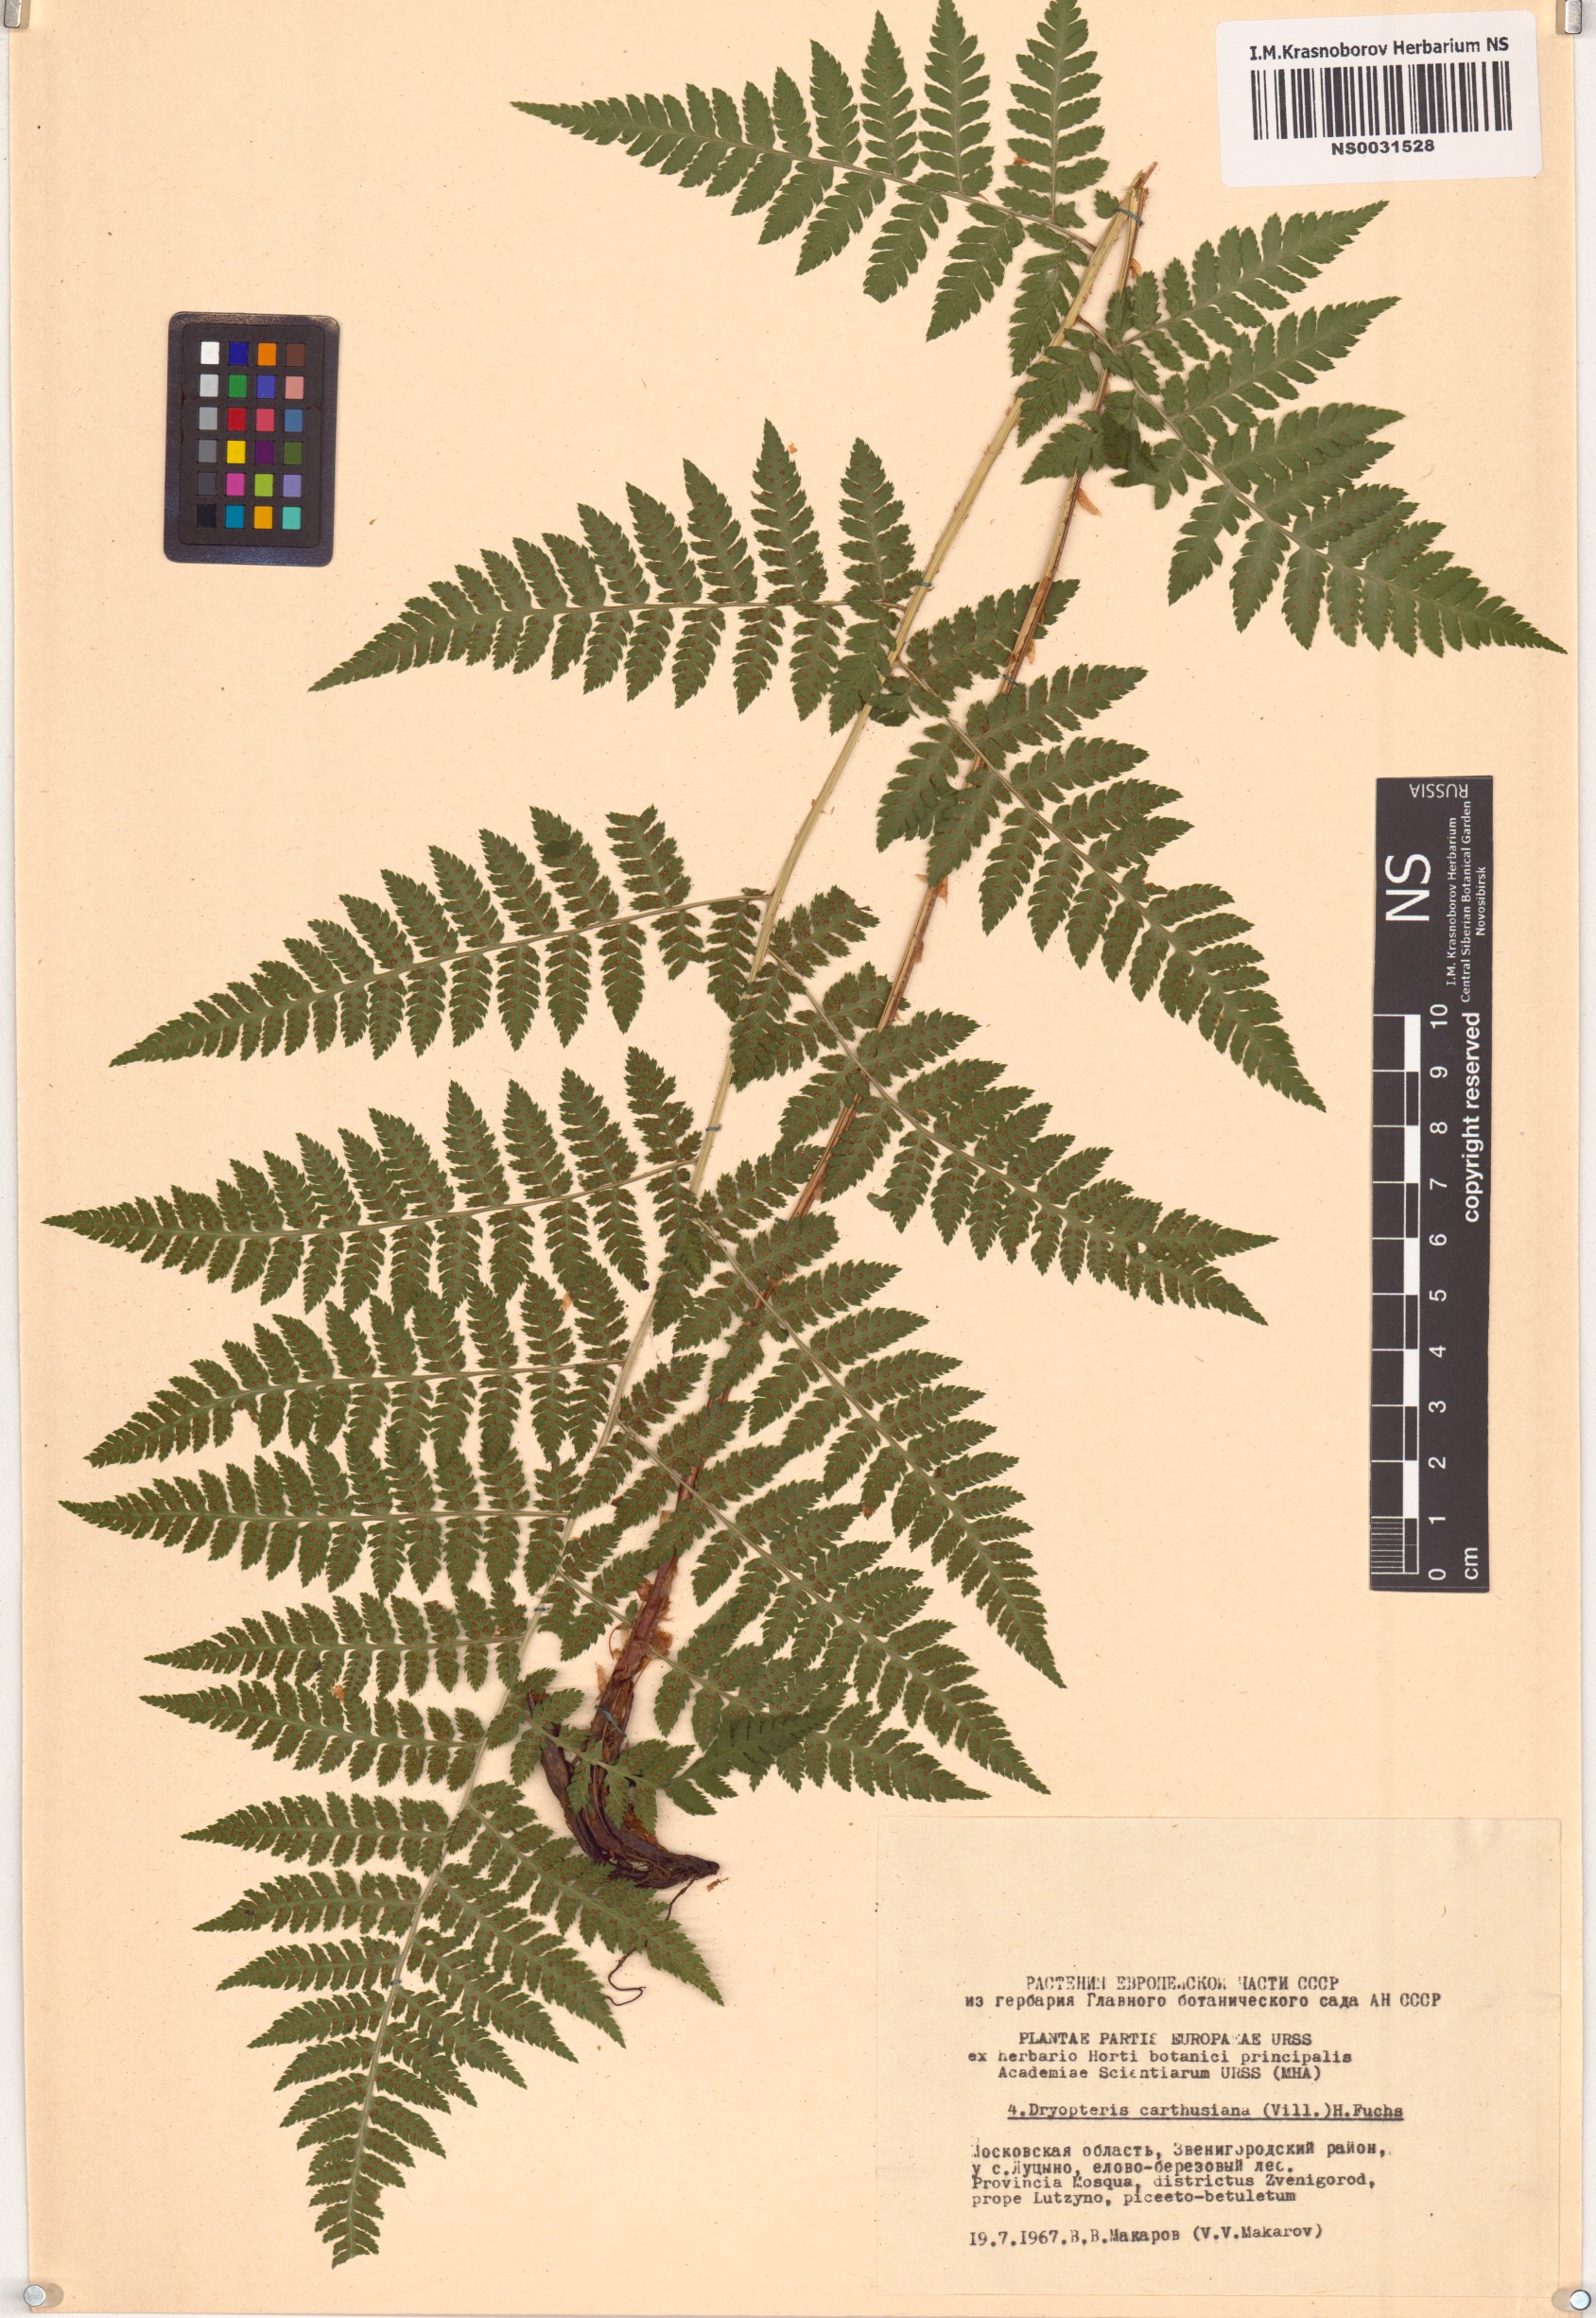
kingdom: Plantae
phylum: Tracheophyta
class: Polypodiopsida
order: Polypodiales
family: Dryopteridaceae
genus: Dryopteris
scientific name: Dryopteris carthusiana
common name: Narrow buckler-fern
